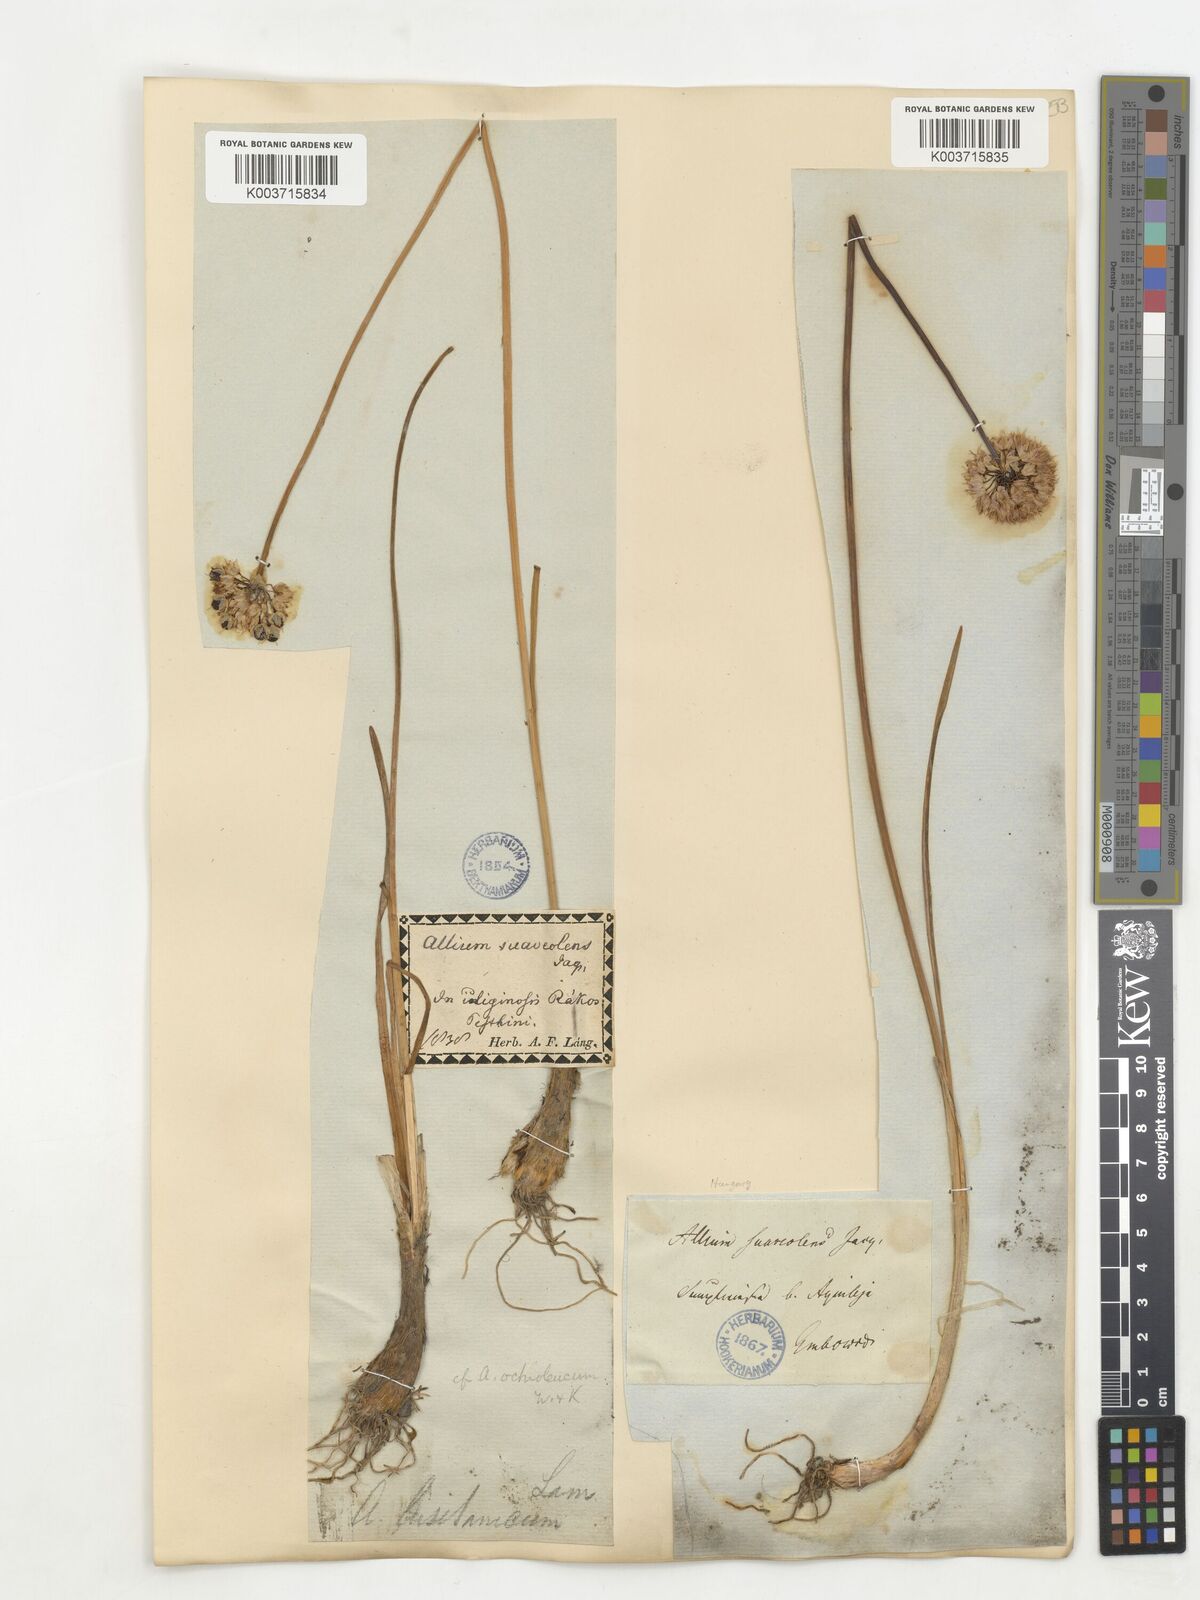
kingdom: Plantae
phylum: Tracheophyta
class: Liliopsida
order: Asparagales
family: Amaryllidaceae
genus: Allium
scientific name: Allium suaveolens
